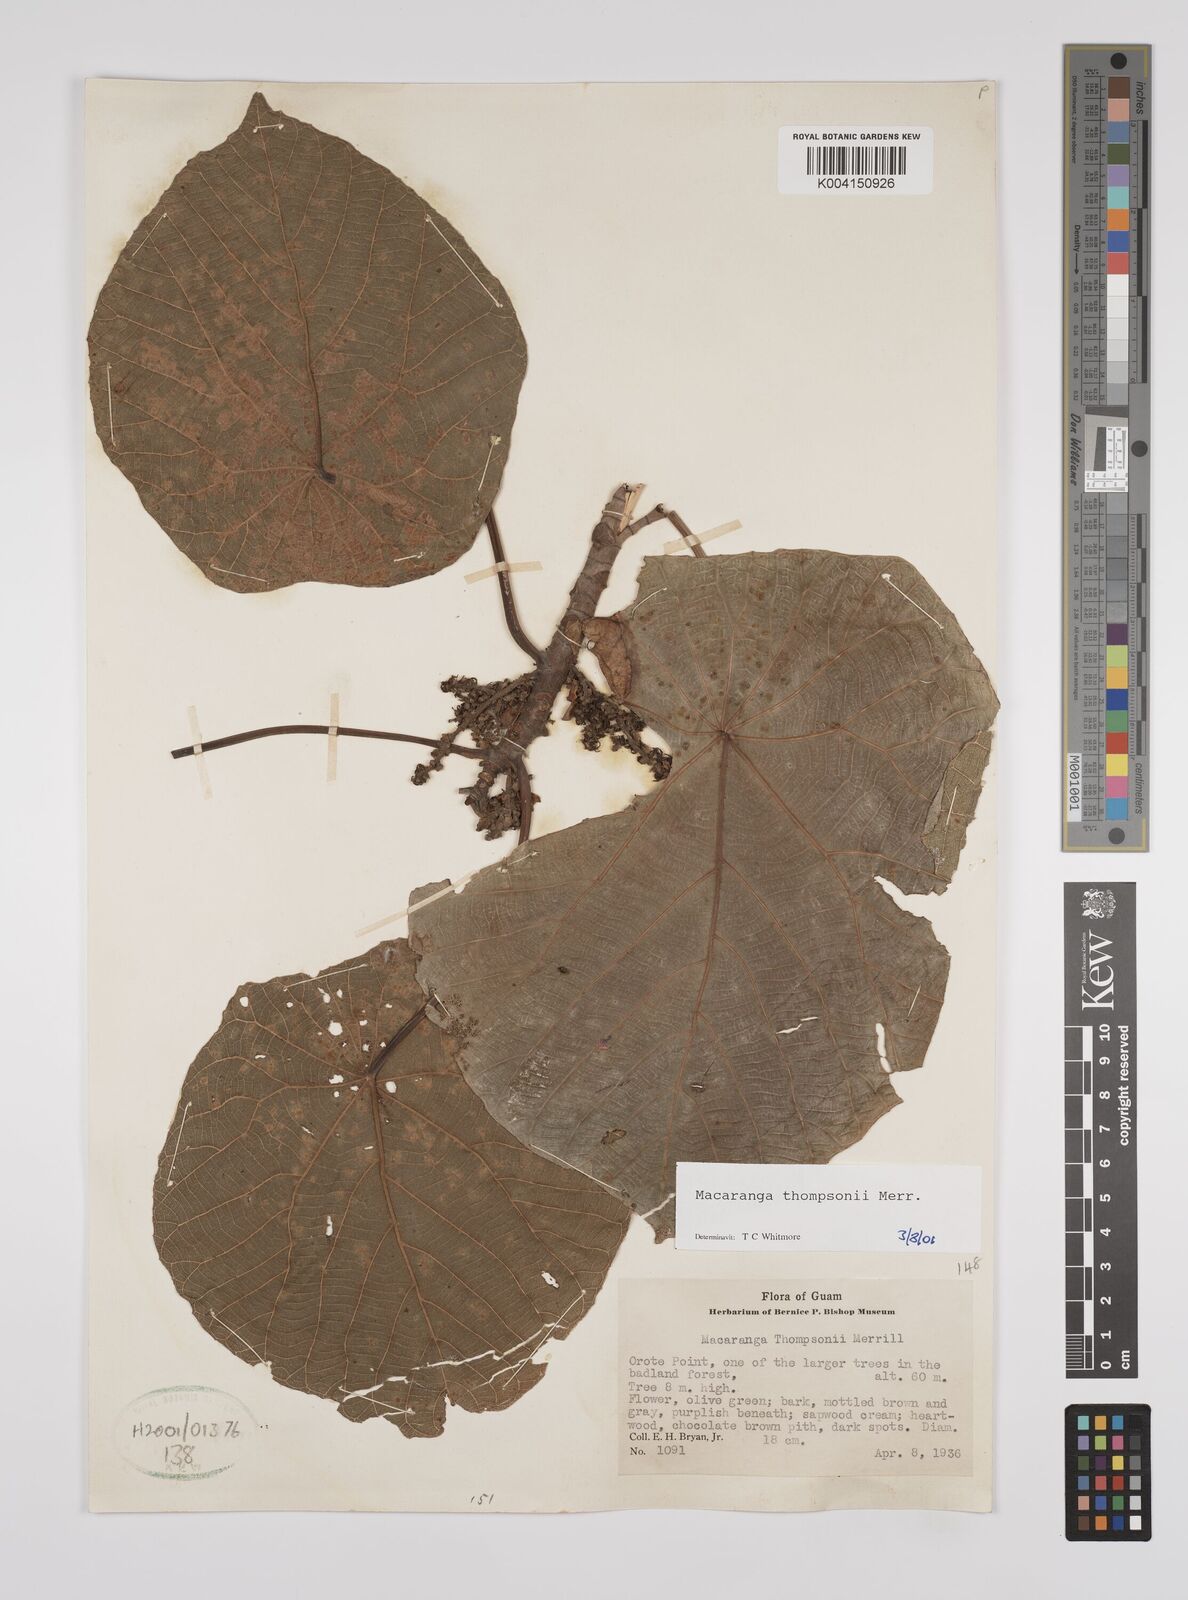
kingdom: Plantae
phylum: Tracheophyta
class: Magnoliopsida
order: Malpighiales
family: Euphorbiaceae
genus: Macaranga
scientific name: Macaranga thompsonii
